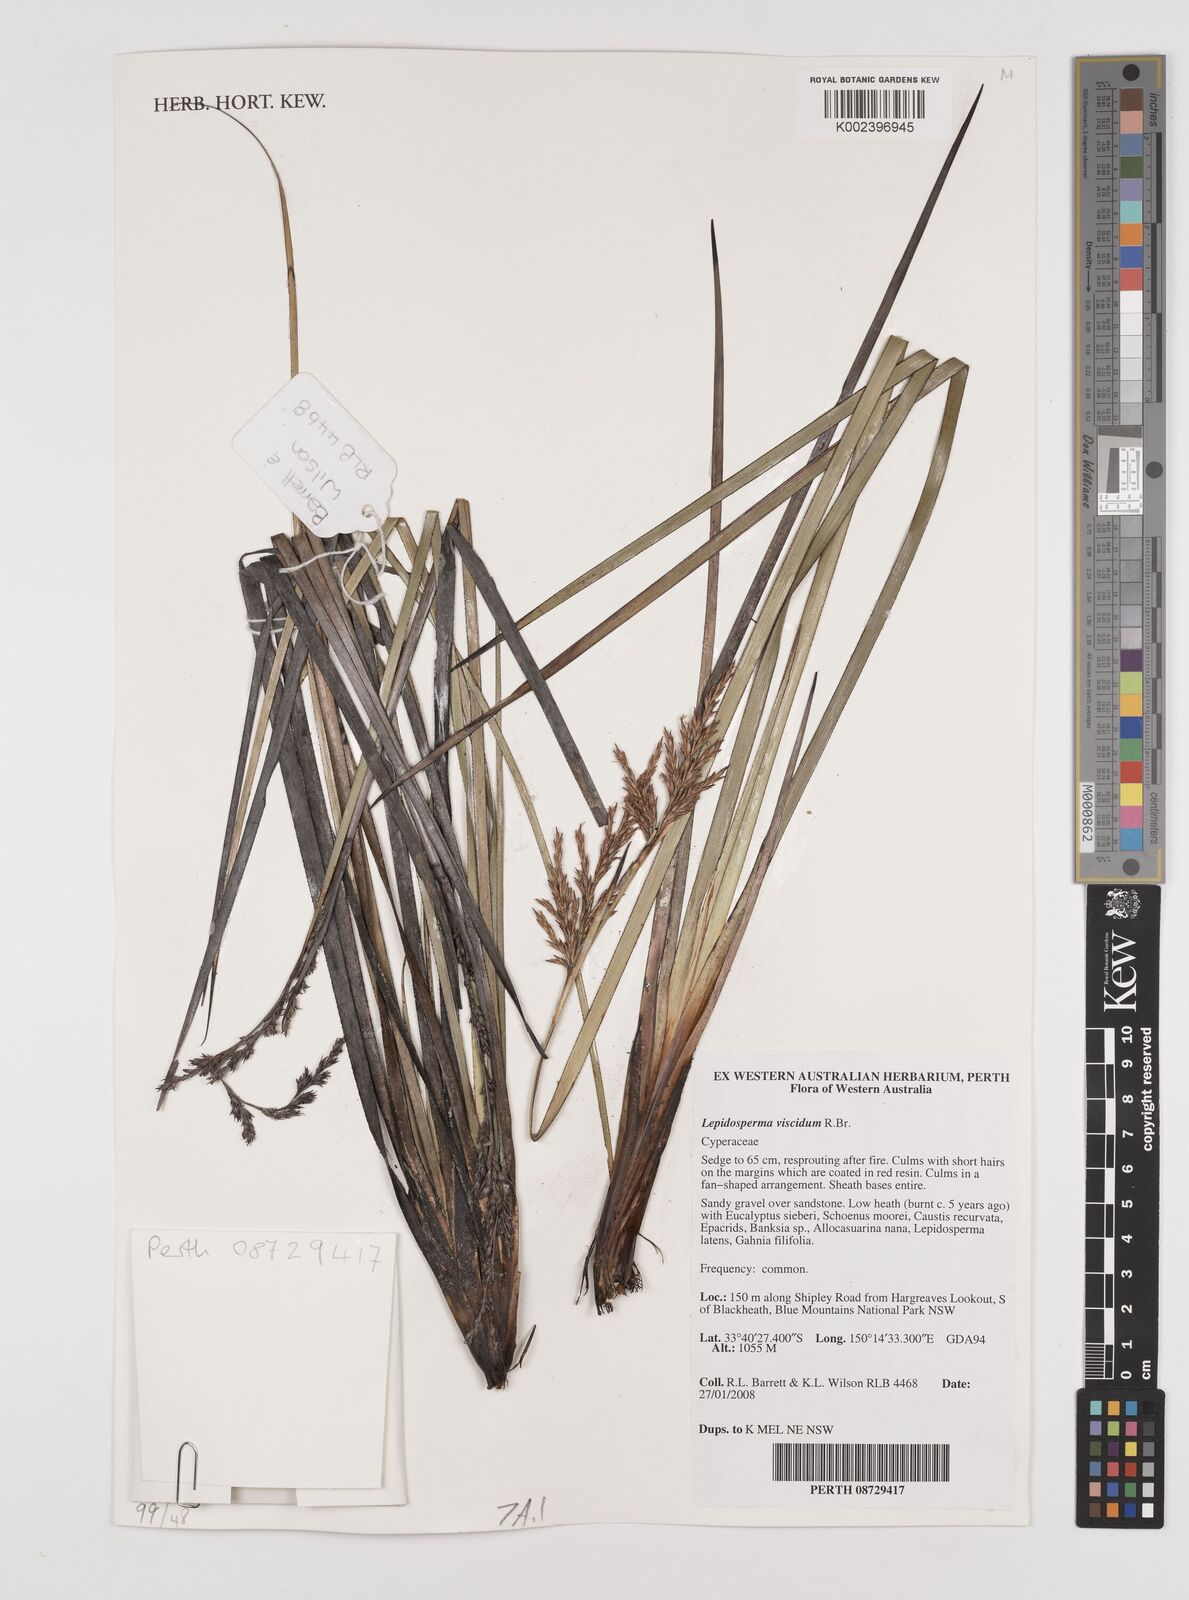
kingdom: Plantae
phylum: Tracheophyta
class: Liliopsida
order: Poales
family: Cyperaceae
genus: Lepidosperma
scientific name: Lepidosperma viscidum
